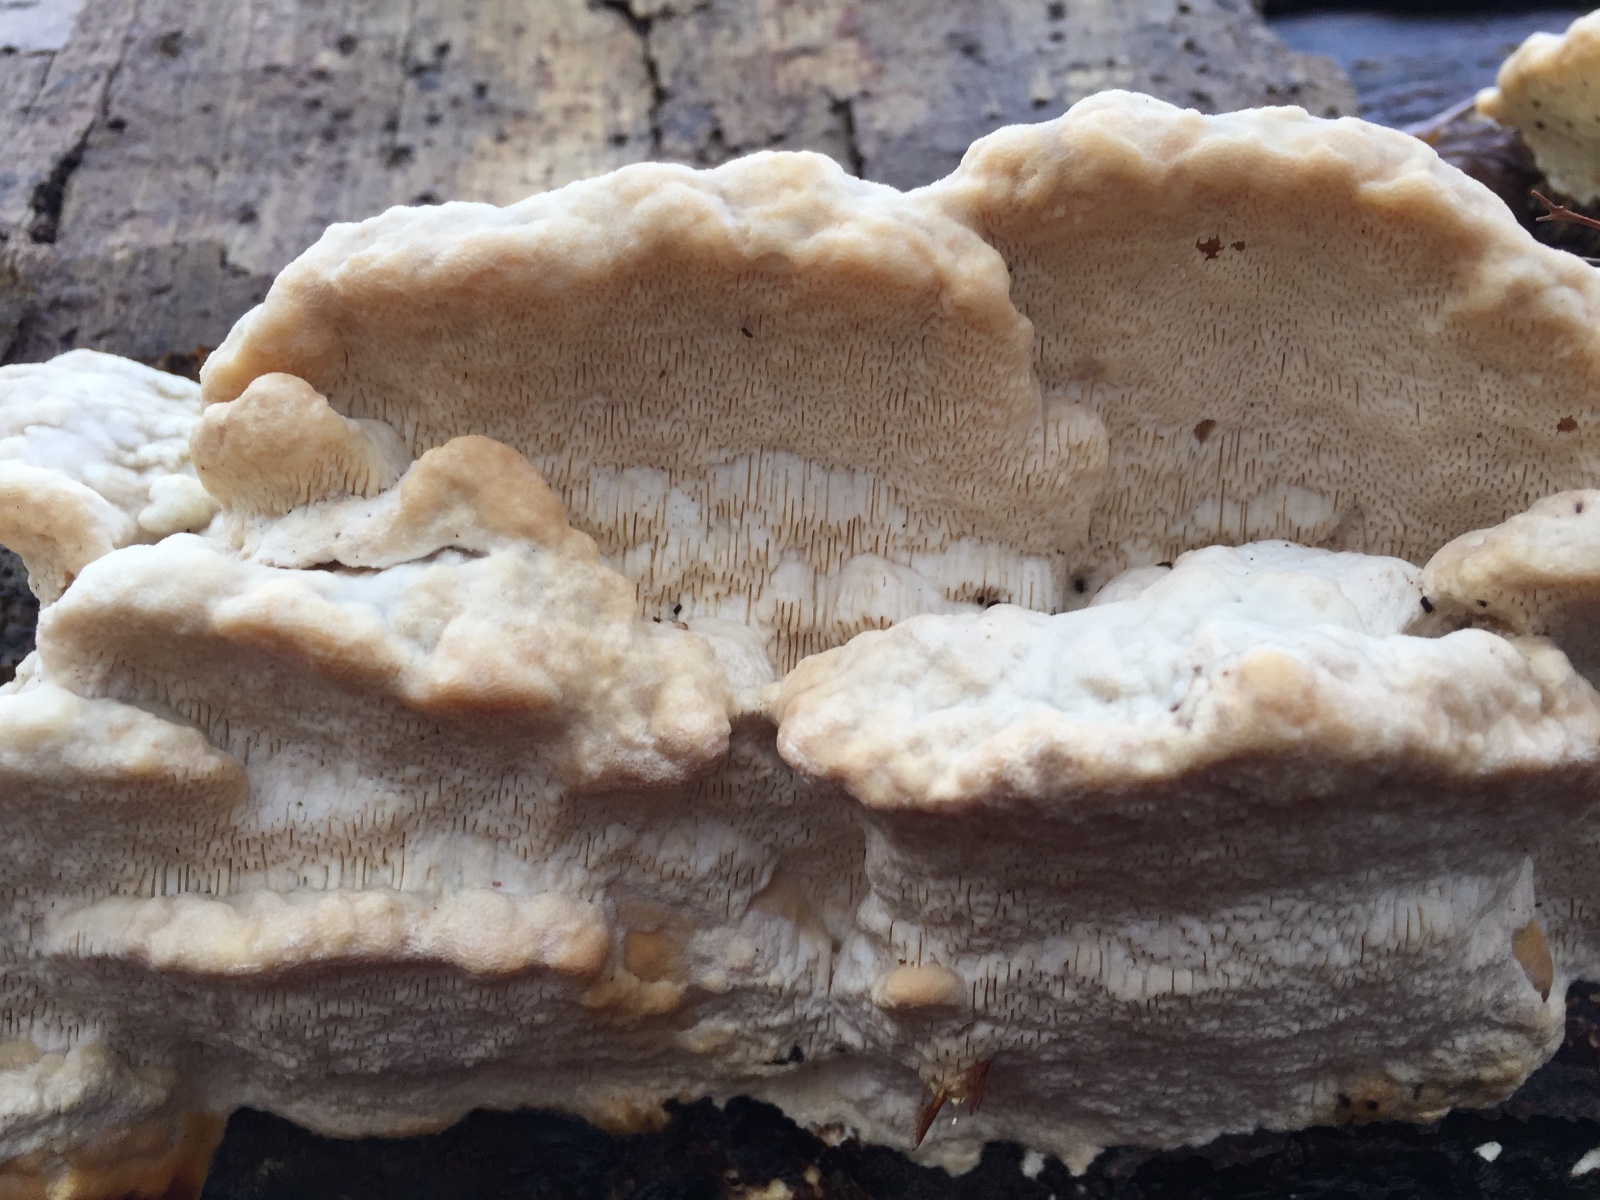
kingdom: Fungi
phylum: Basidiomycota
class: Agaricomycetes
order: Polyporales
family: Polyporaceae
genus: Trametes
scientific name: Trametes gibbosa
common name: puklet læderporesvamp
